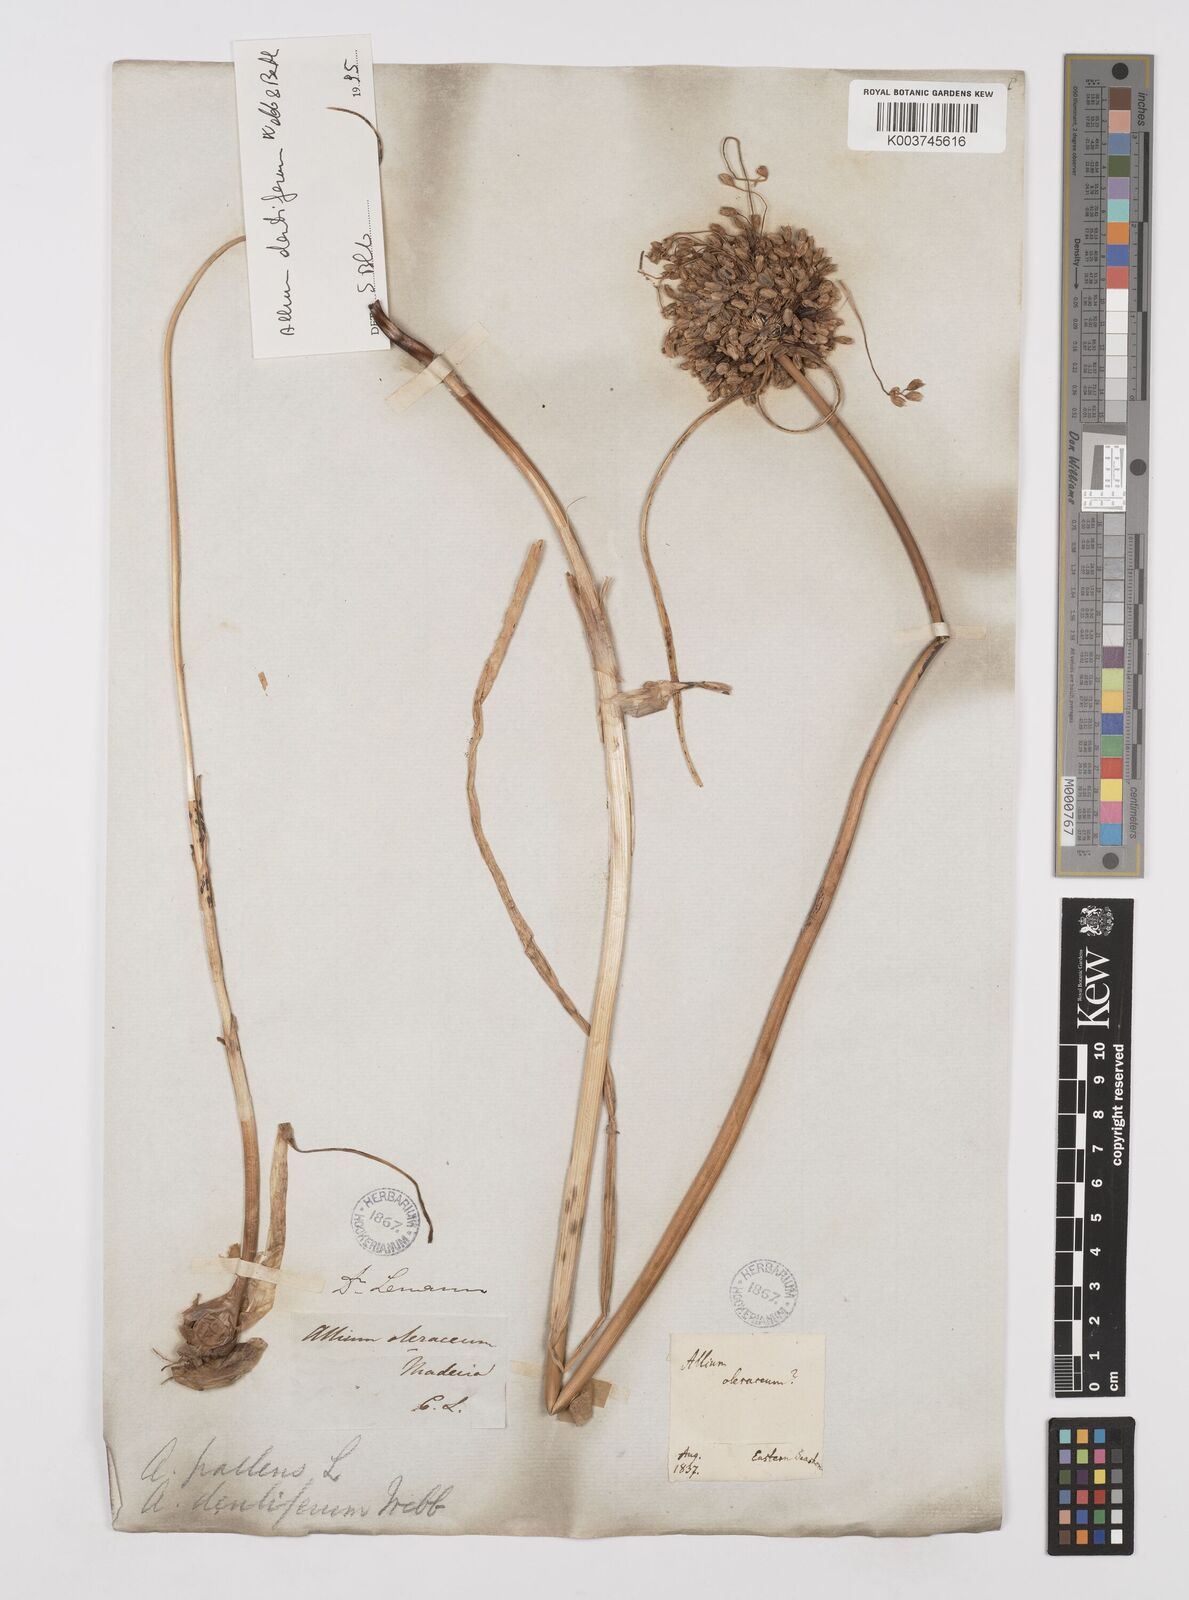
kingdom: Plantae
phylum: Tracheophyta
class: Liliopsida
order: Asparagales
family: Amaryllidaceae
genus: Allium
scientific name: Allium flavum
